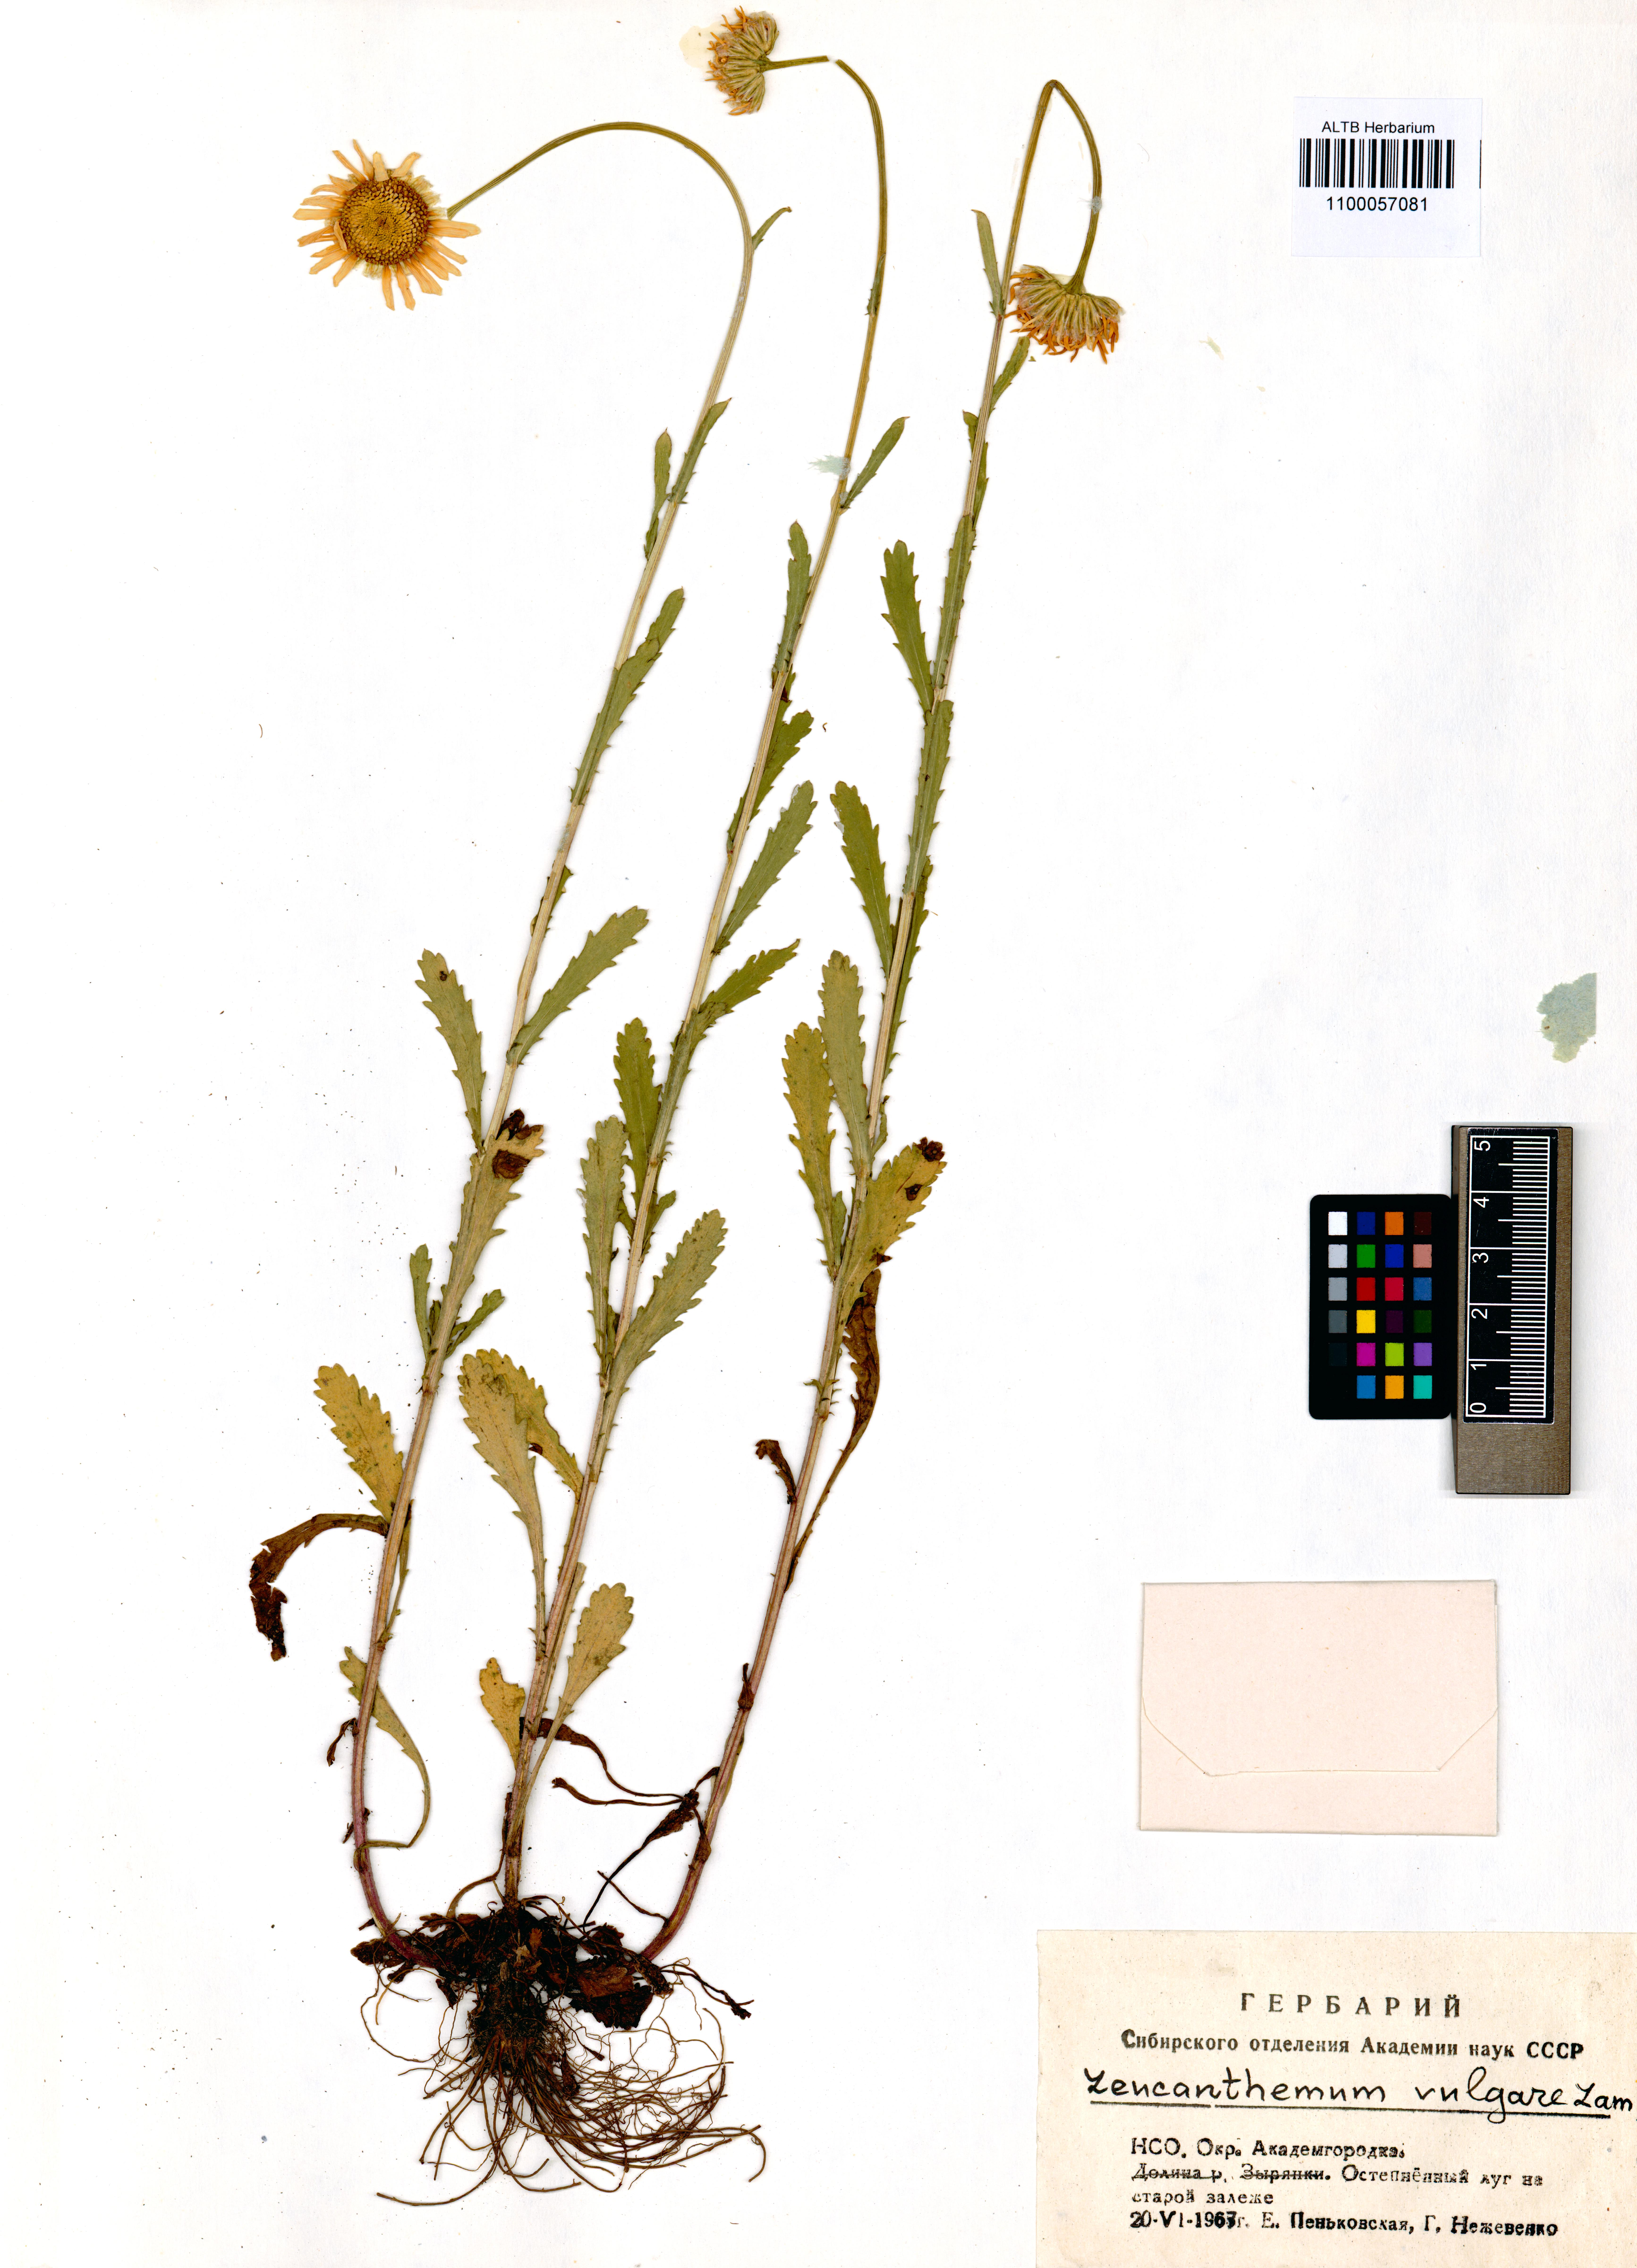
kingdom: Plantae
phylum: Tracheophyta
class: Magnoliopsida
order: Asterales
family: Asteraceae
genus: Leucanthemum
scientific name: Leucanthemum vulgare
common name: Oxeye daisy
